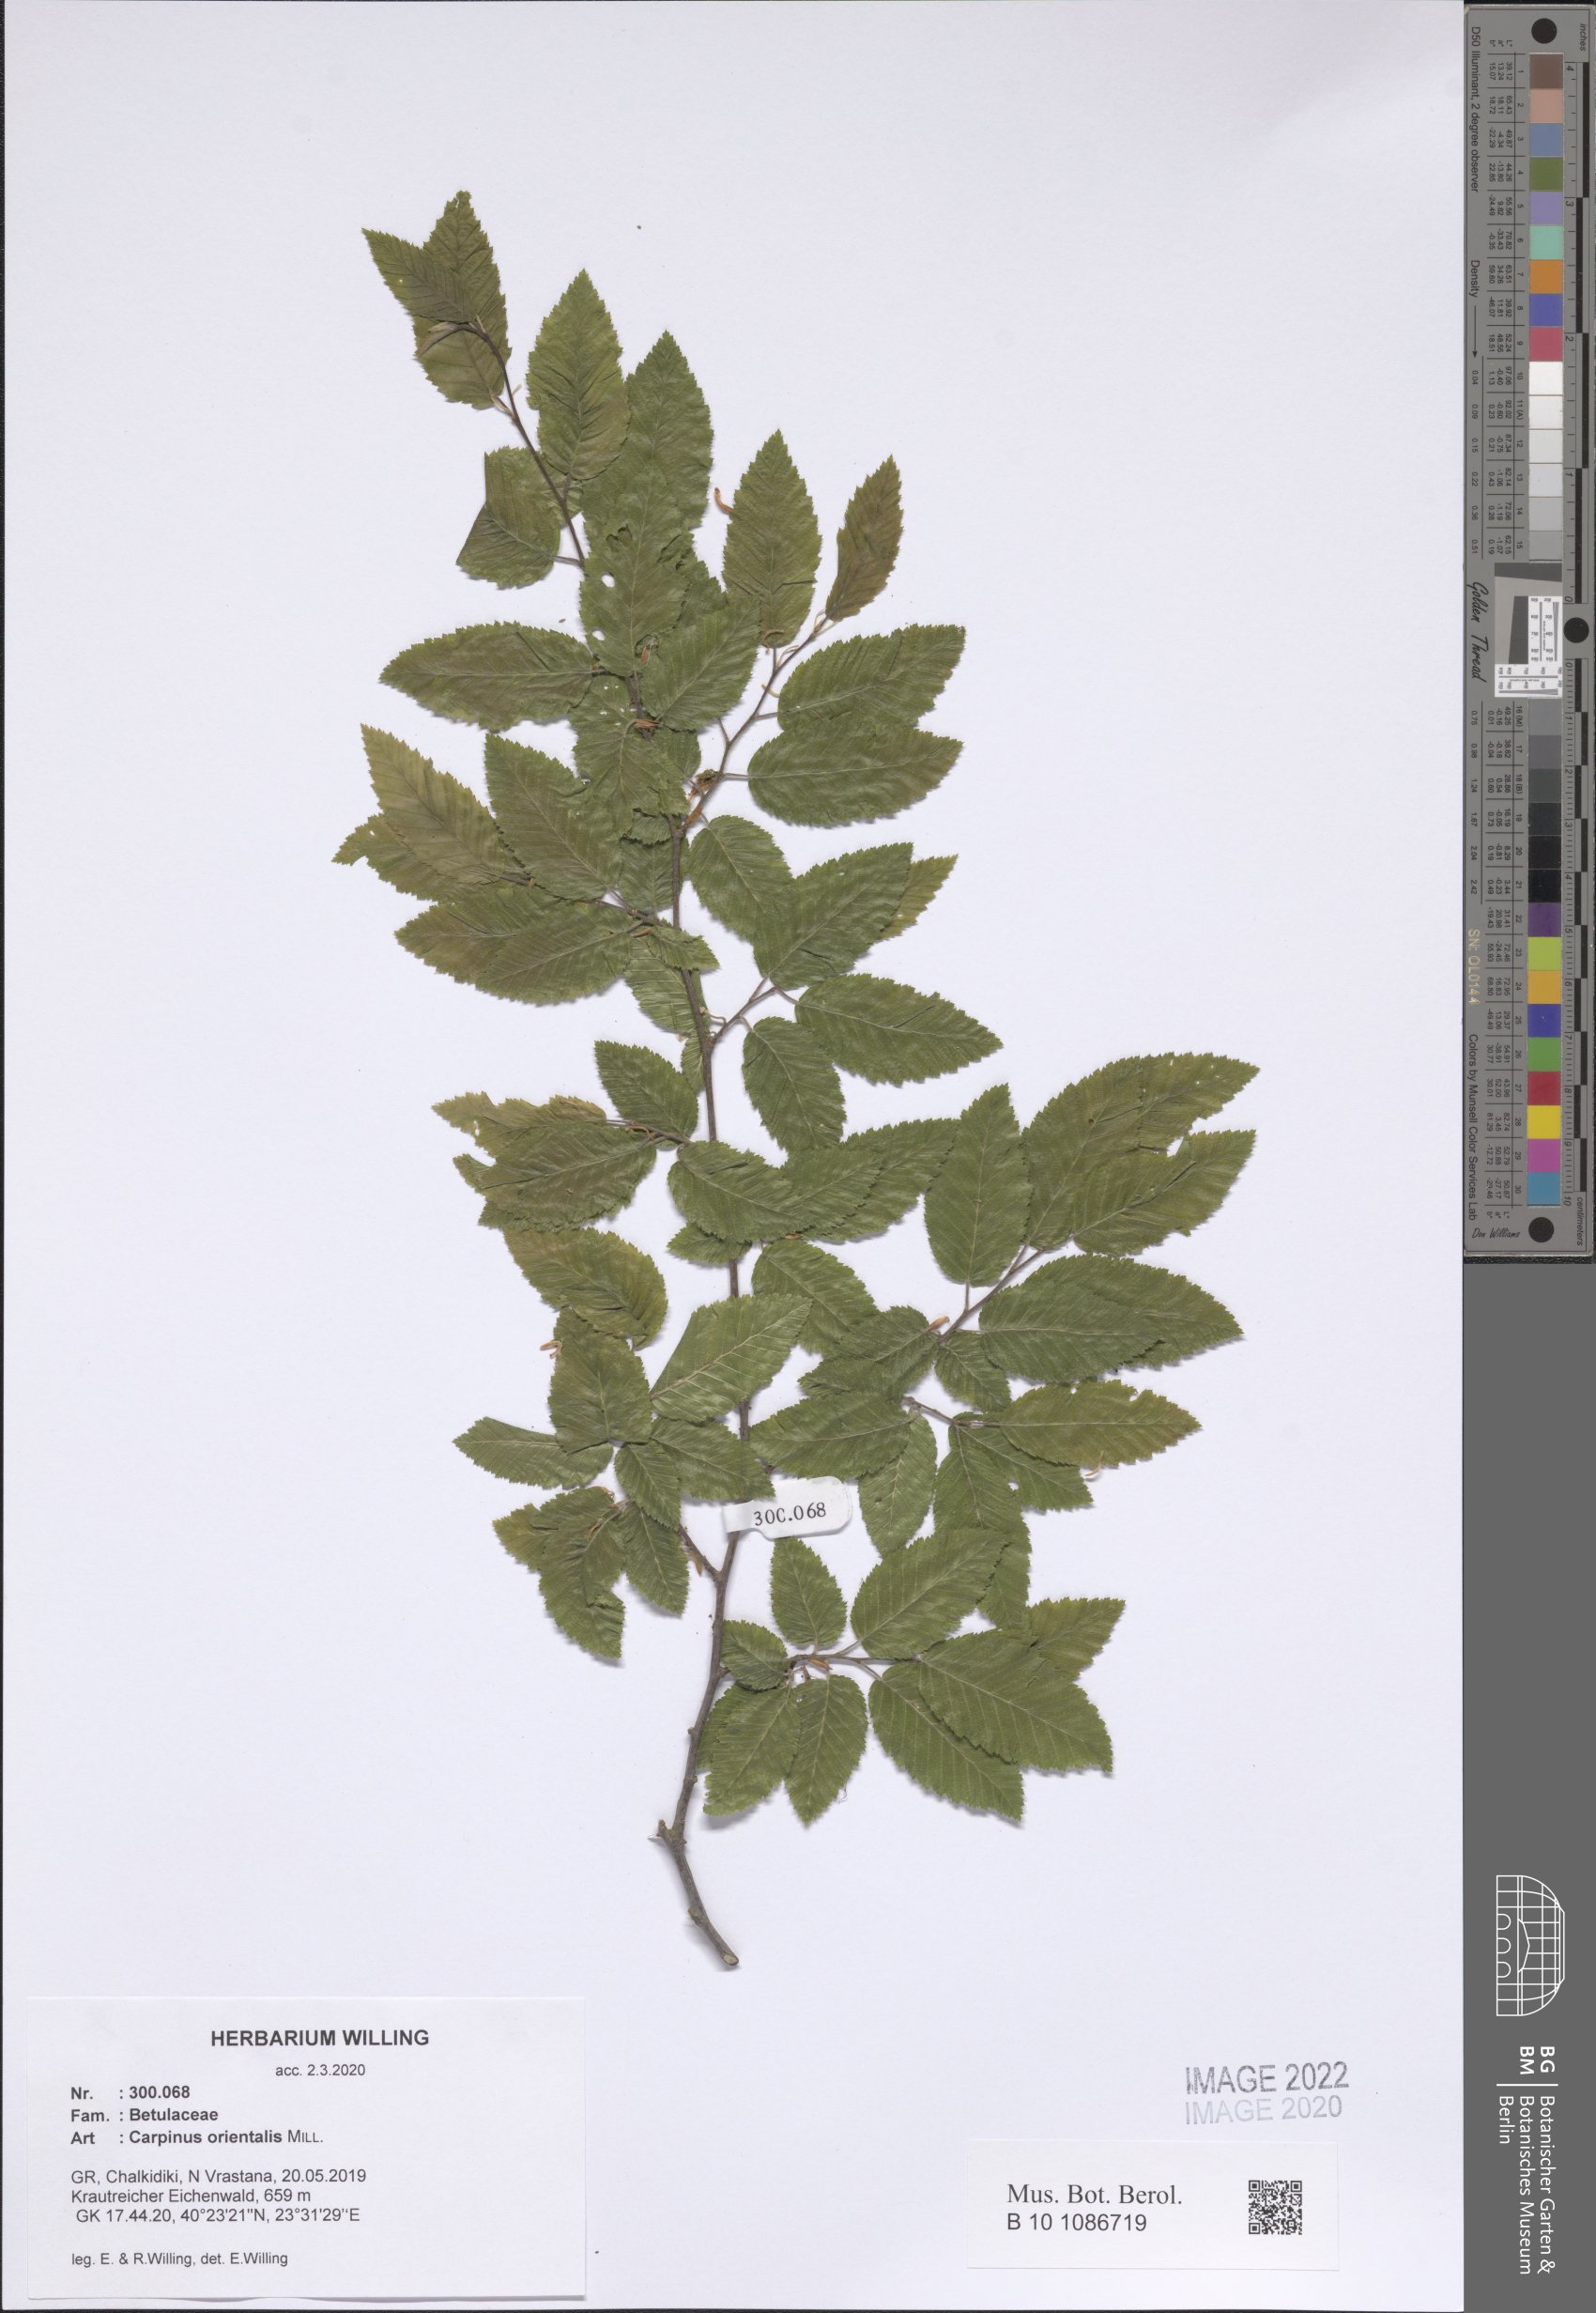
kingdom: Plantae
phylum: Tracheophyta
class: Magnoliopsida
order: Fagales
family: Betulaceae
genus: Carpinus
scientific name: Carpinus orientalis
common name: Eastern hornbeam
